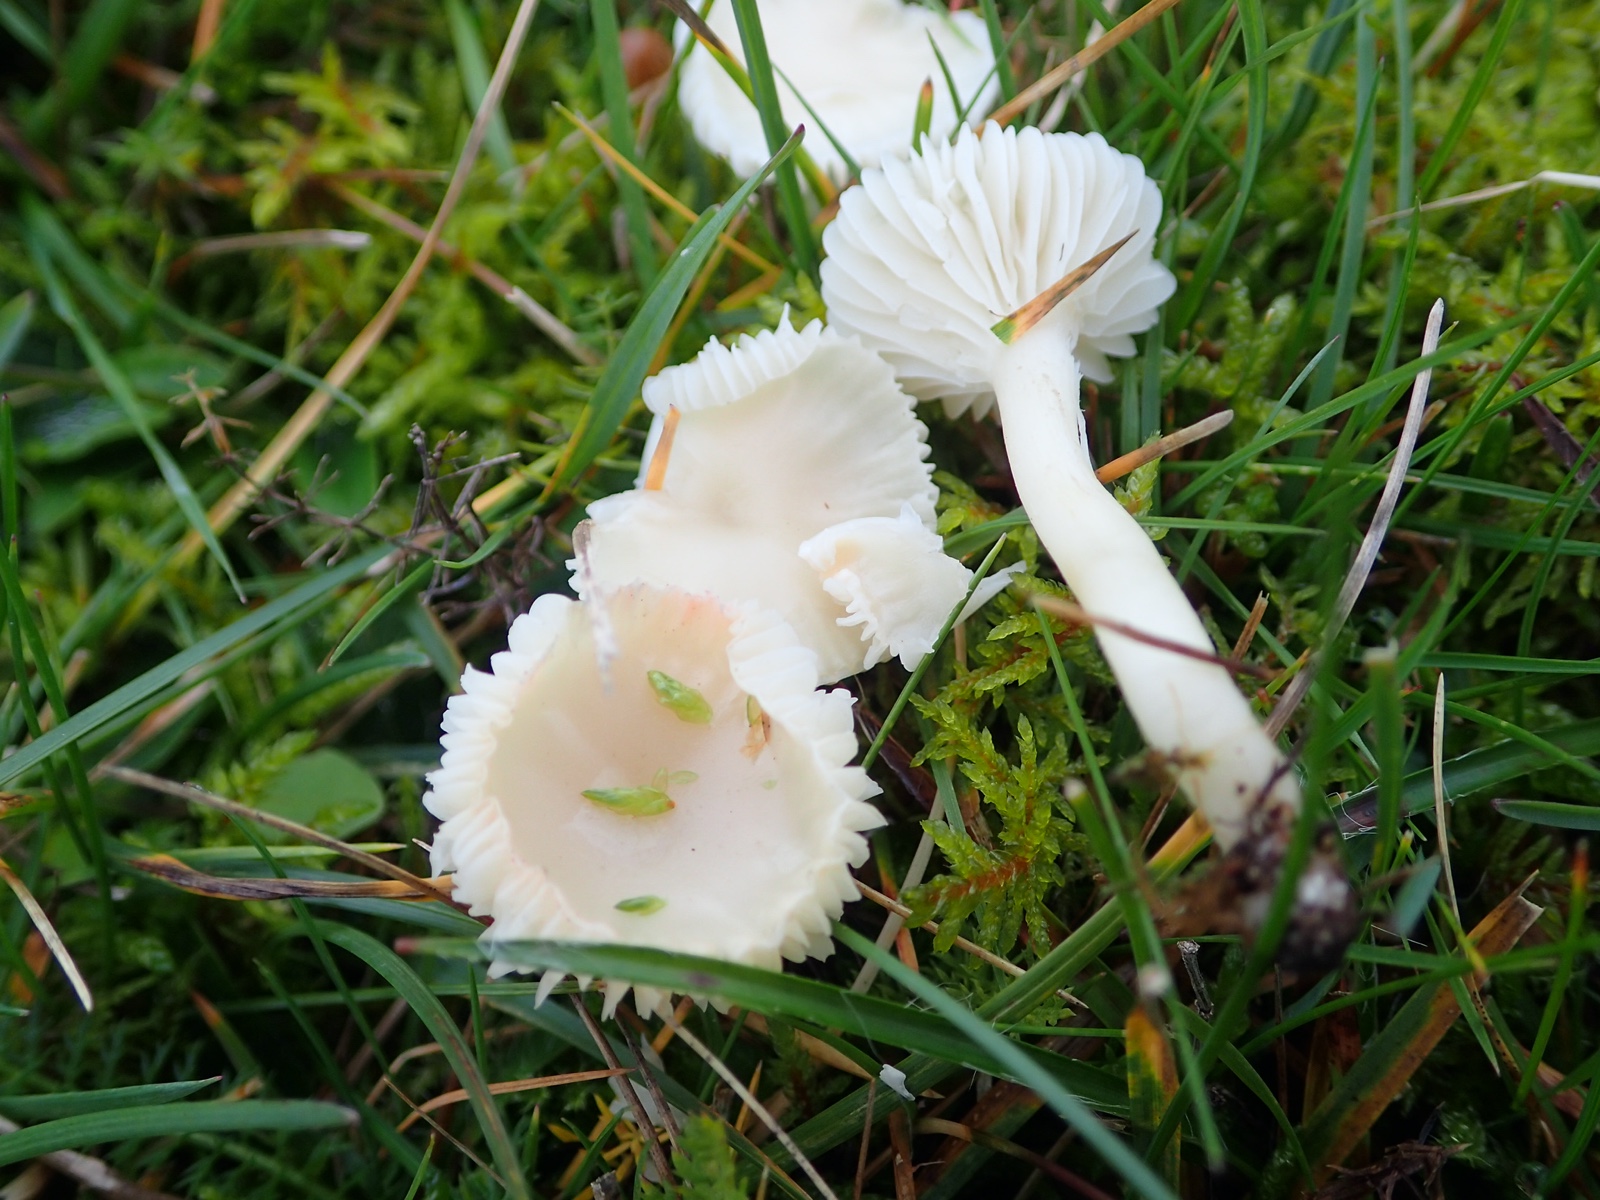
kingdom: Fungi
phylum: Basidiomycota
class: Agaricomycetes
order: Agaricales
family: Hygrophoraceae
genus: Cuphophyllus
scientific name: Cuphophyllus
